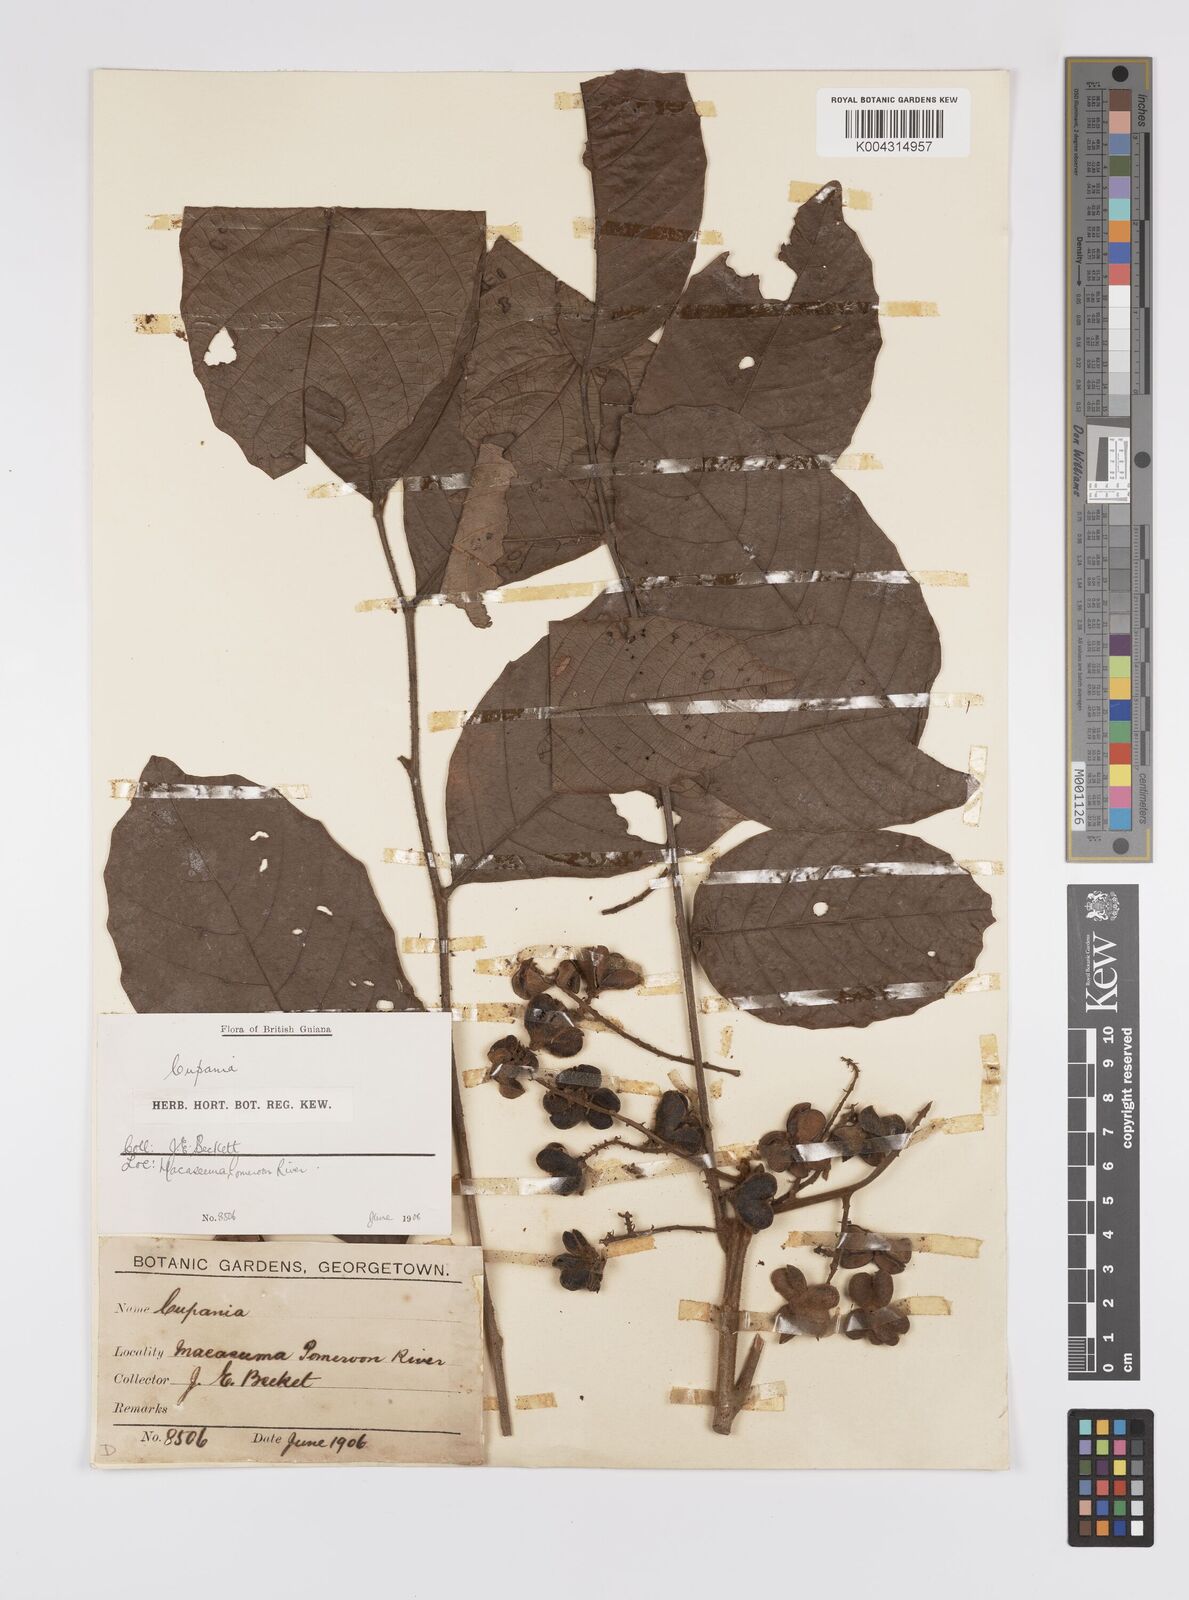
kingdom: Plantae
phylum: Tracheophyta
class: Magnoliopsida
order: Sapindales
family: Sapindaceae
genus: Cupania
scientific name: Cupania hirsuta
